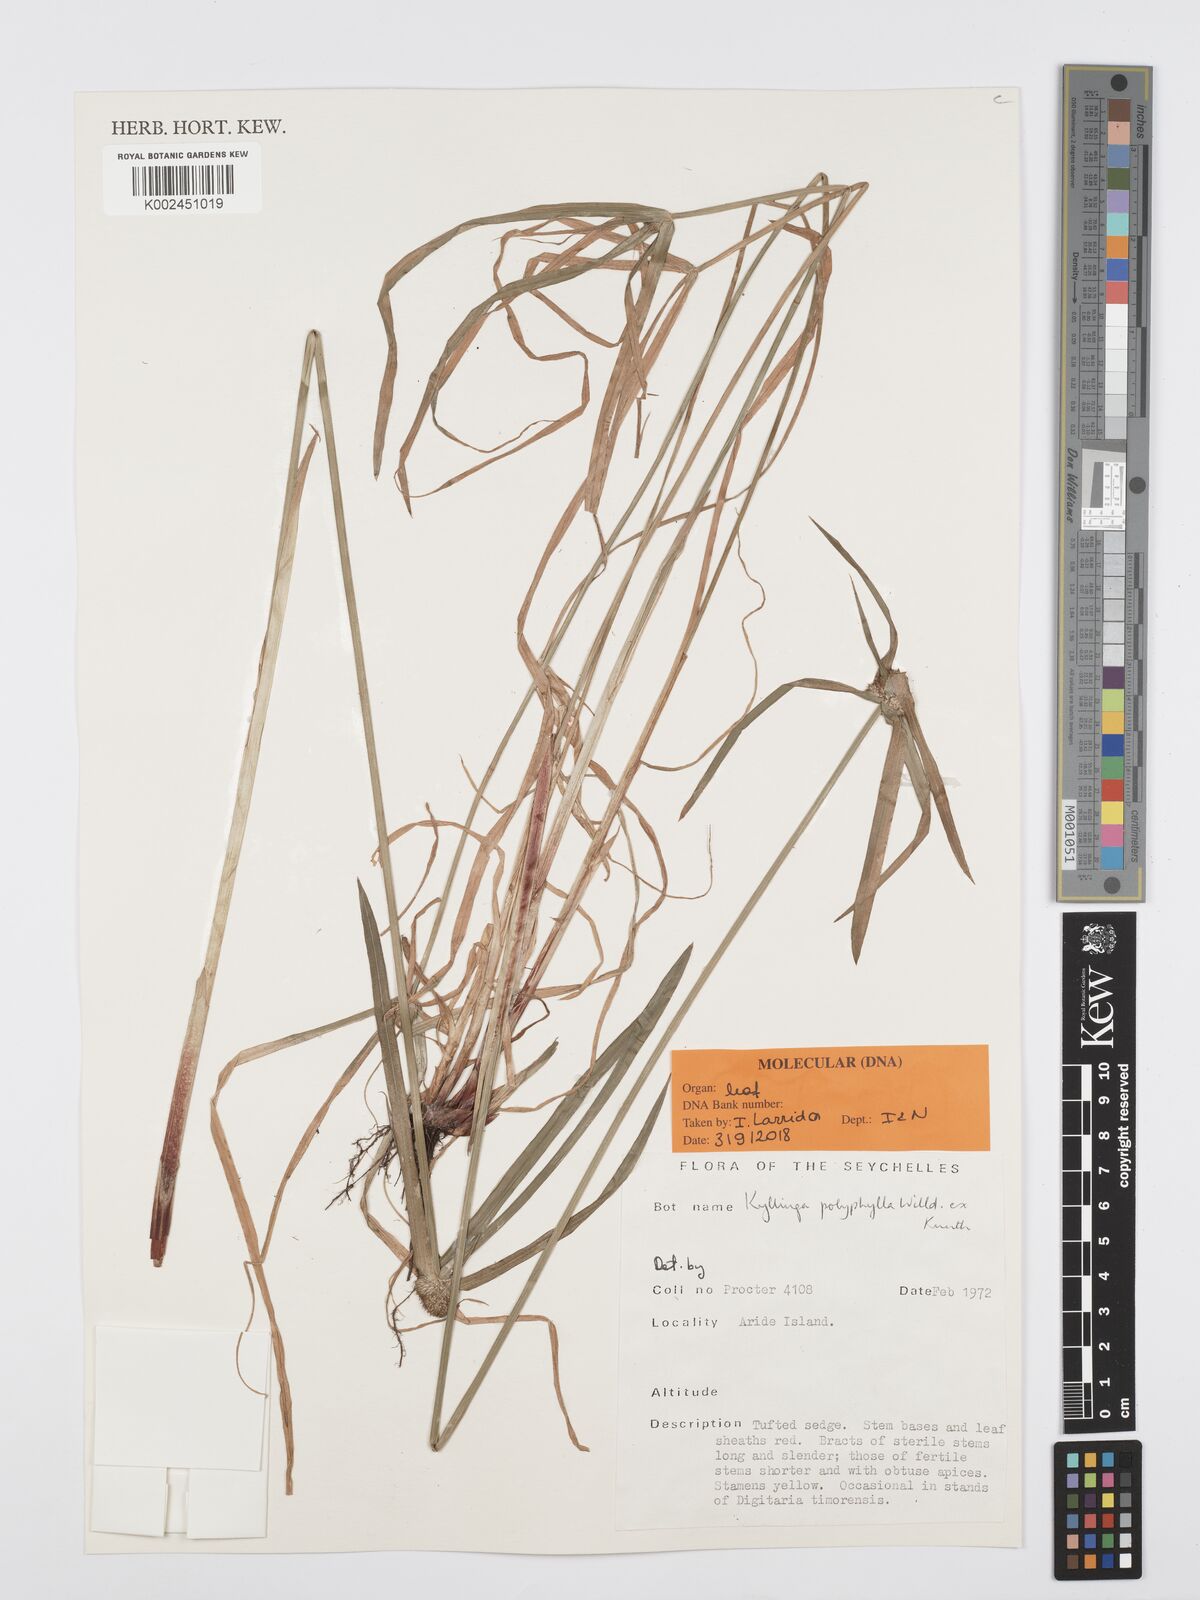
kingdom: Plantae
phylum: Tracheophyta
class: Liliopsida
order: Poales
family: Cyperaceae
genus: Cyperus
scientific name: Cyperus bulbosus
